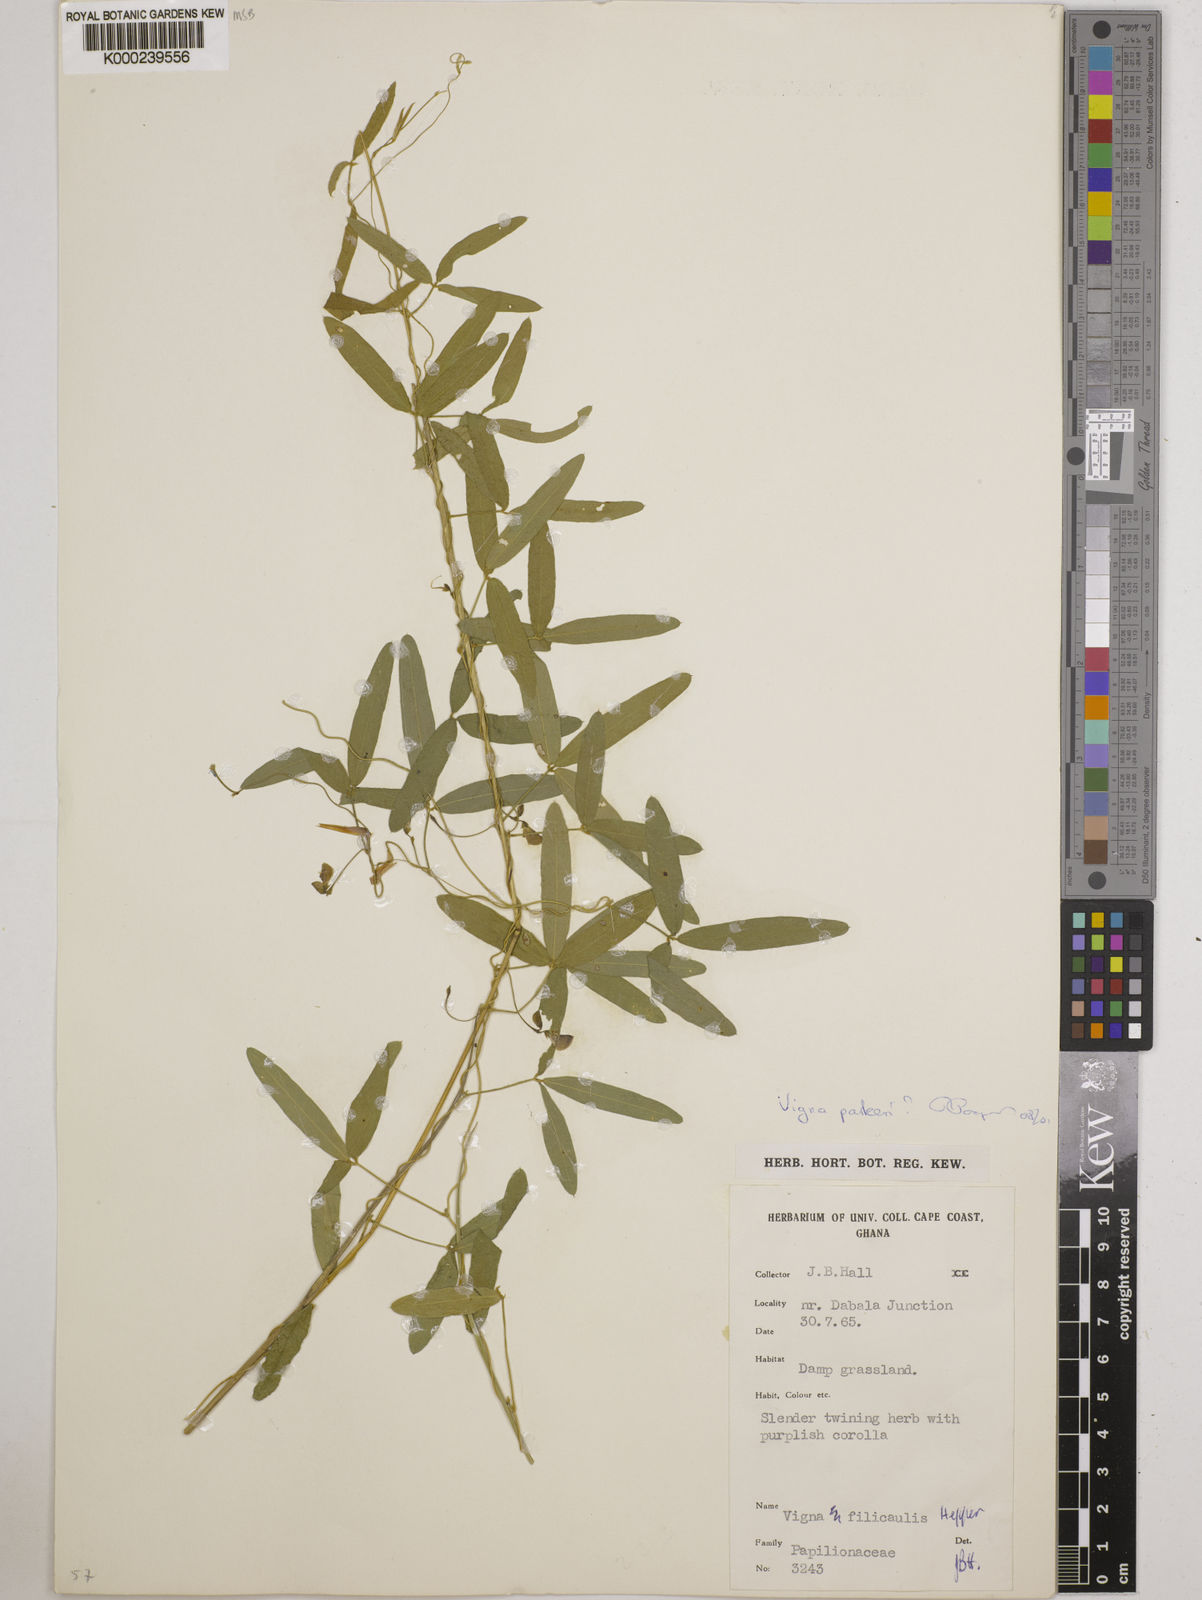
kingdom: Plantae
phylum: Tracheophyta
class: Magnoliopsida
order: Fabales
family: Fabaceae
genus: Vigna
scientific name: Vigna filicaulis
